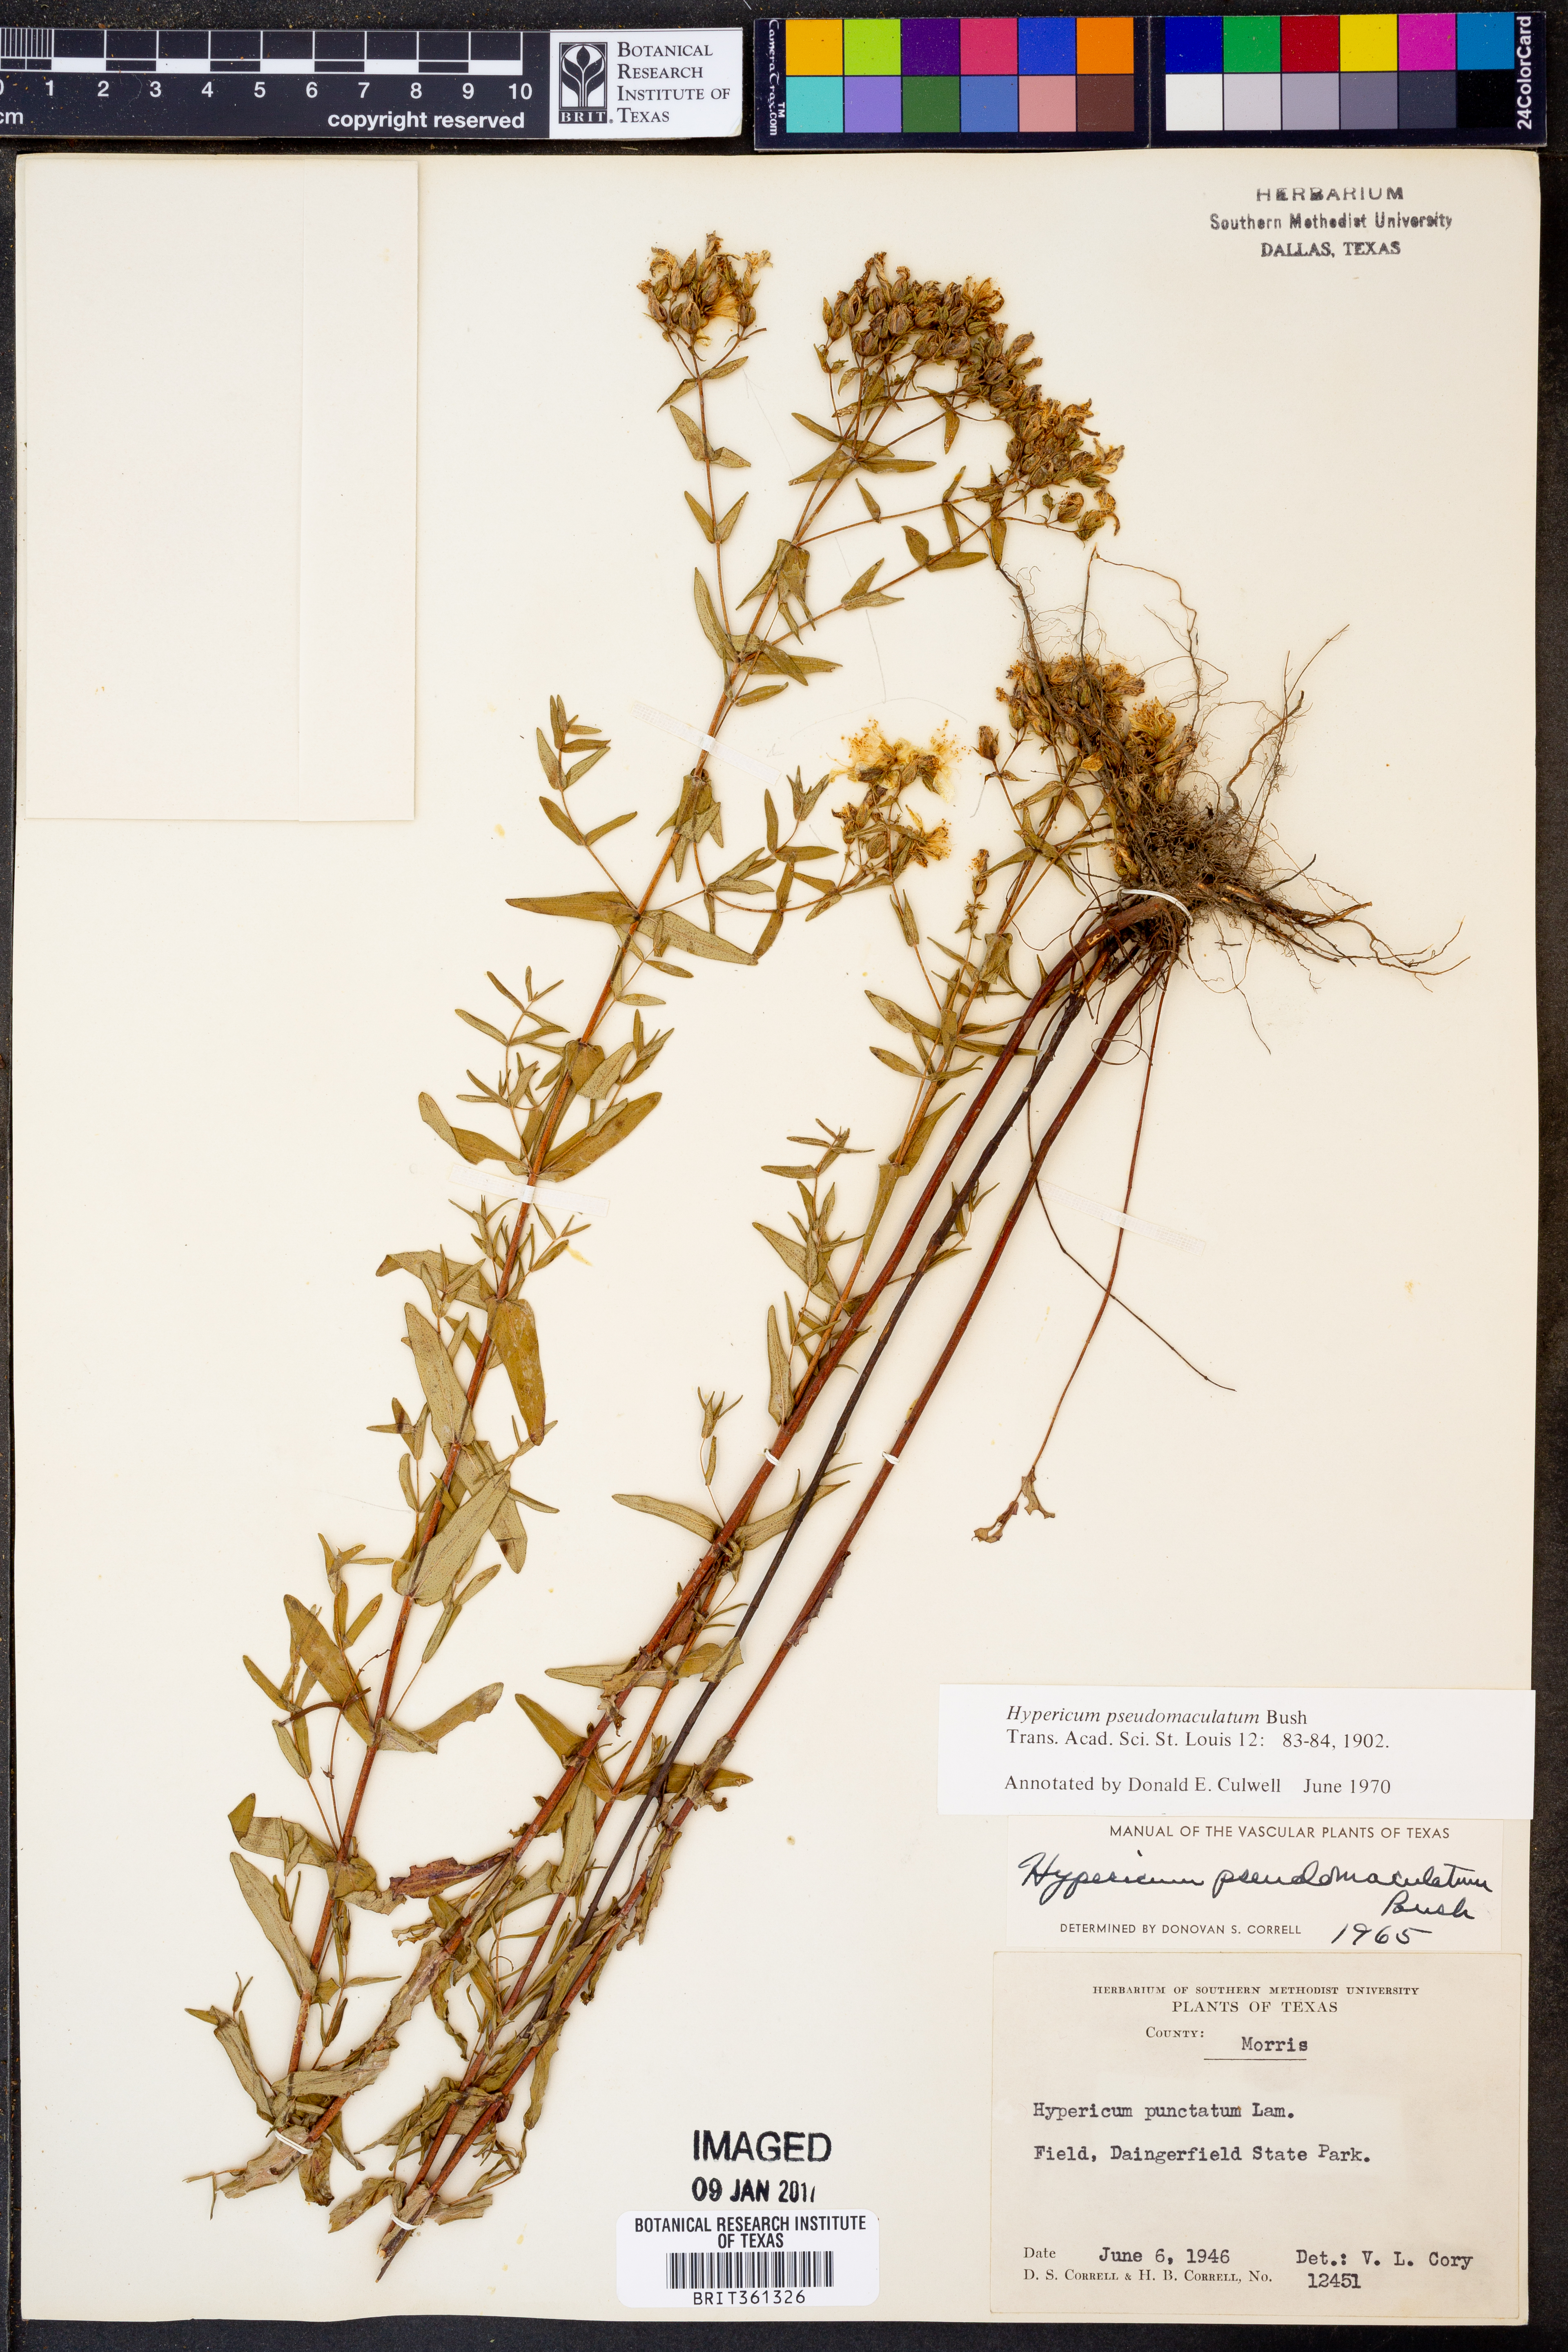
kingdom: Plantae
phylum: Tracheophyta
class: Magnoliopsida
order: Malpighiales
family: Hypericaceae
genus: Hypericum
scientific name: Hypericum pseudomaculatum
